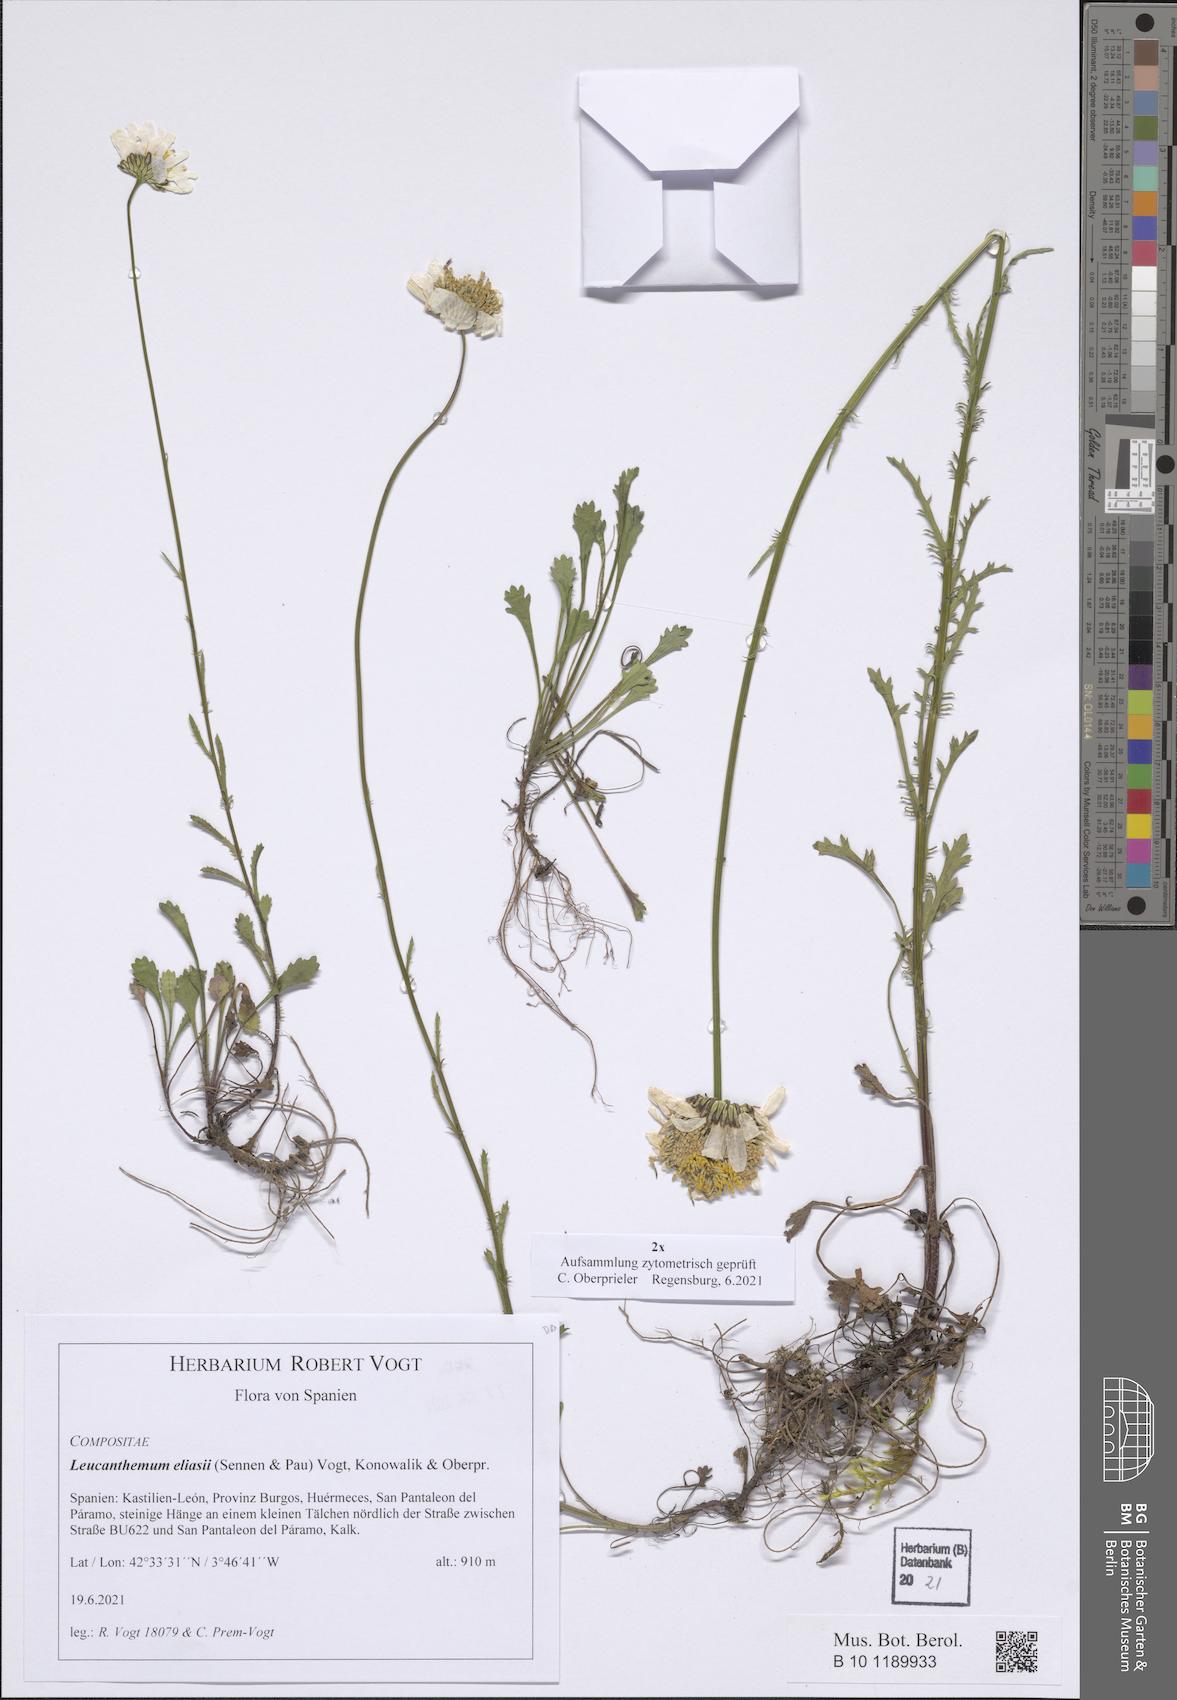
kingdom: Plantae
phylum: Tracheophyta
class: Magnoliopsida
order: Asterales
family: Asteraceae
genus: Leucanthemum
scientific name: Leucanthemum eliasii
